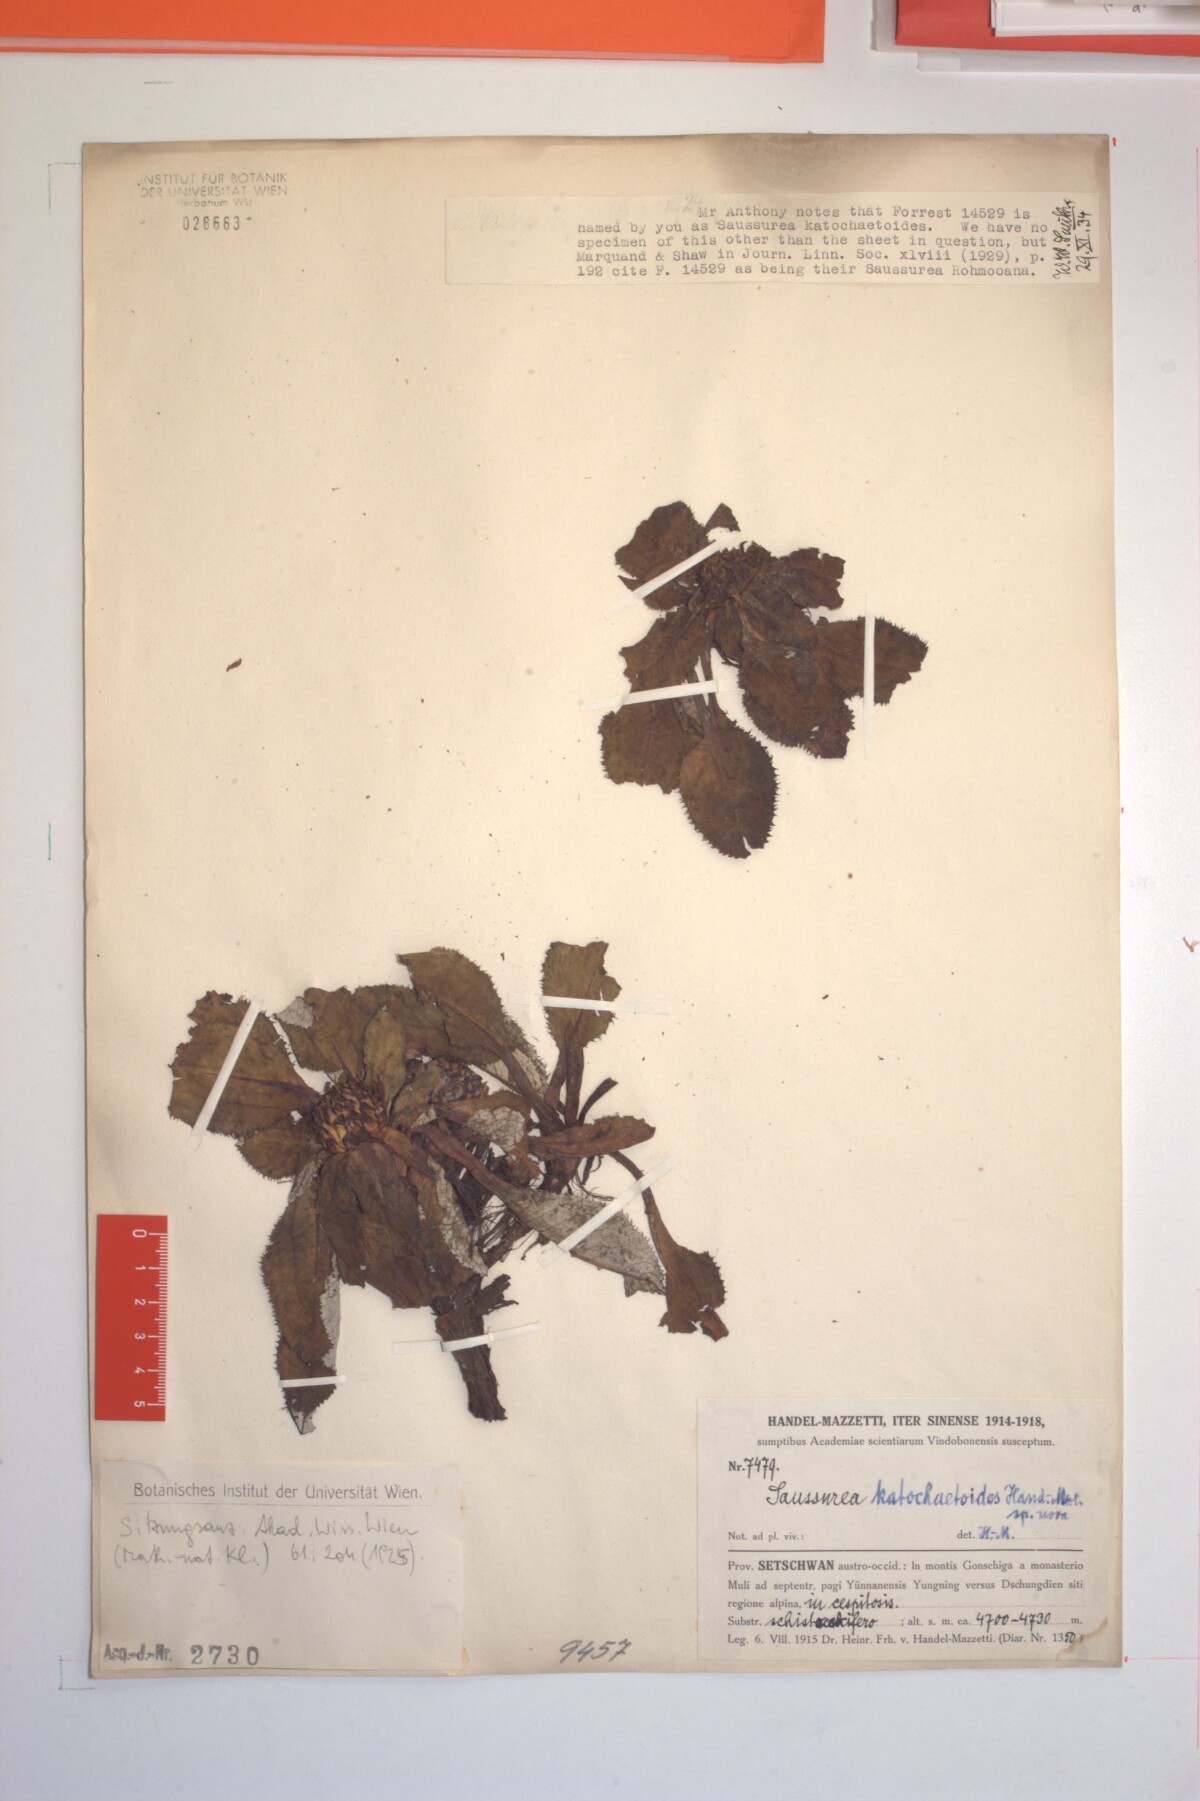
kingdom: Plantae
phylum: Tracheophyta
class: Magnoliopsida
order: Asterales
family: Asteraceae
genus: Saussurea
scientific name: Saussurea katochaete
